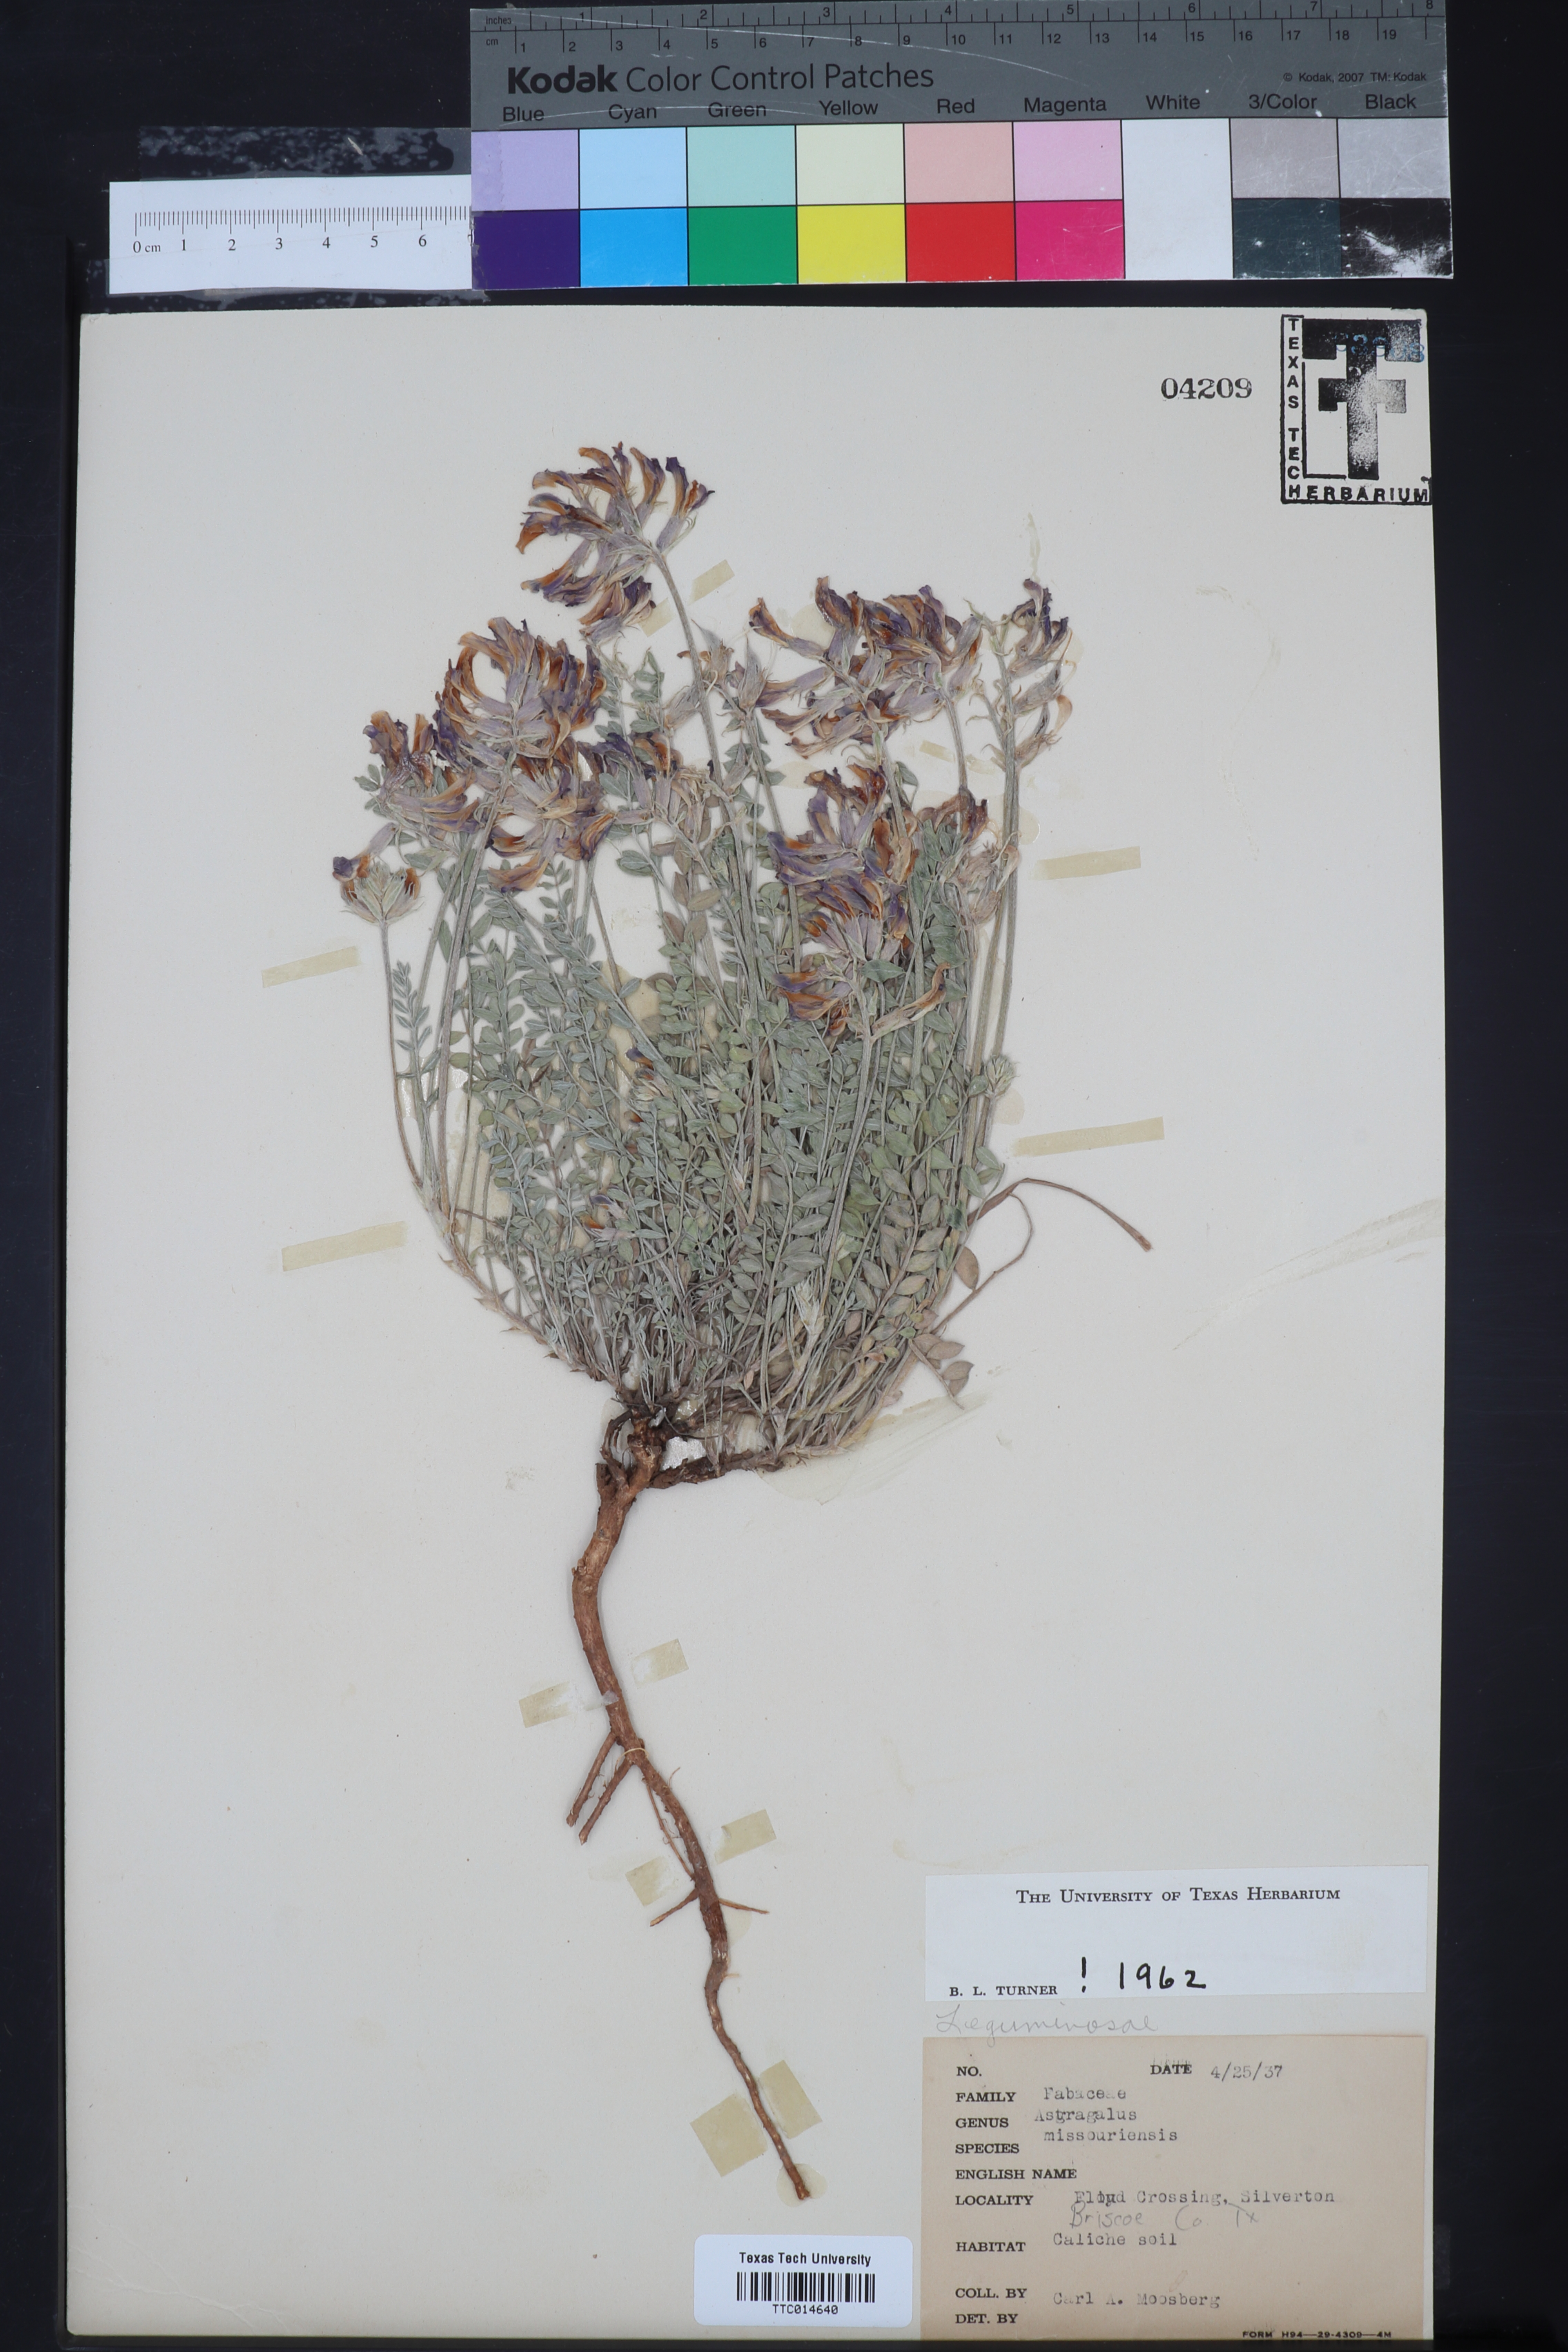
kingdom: Plantae
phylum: Tracheophyta
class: Magnoliopsida
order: Fabales
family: Fabaceae
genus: Astragalus
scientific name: Astragalus missouriensis
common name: Missouri milk-vetch
